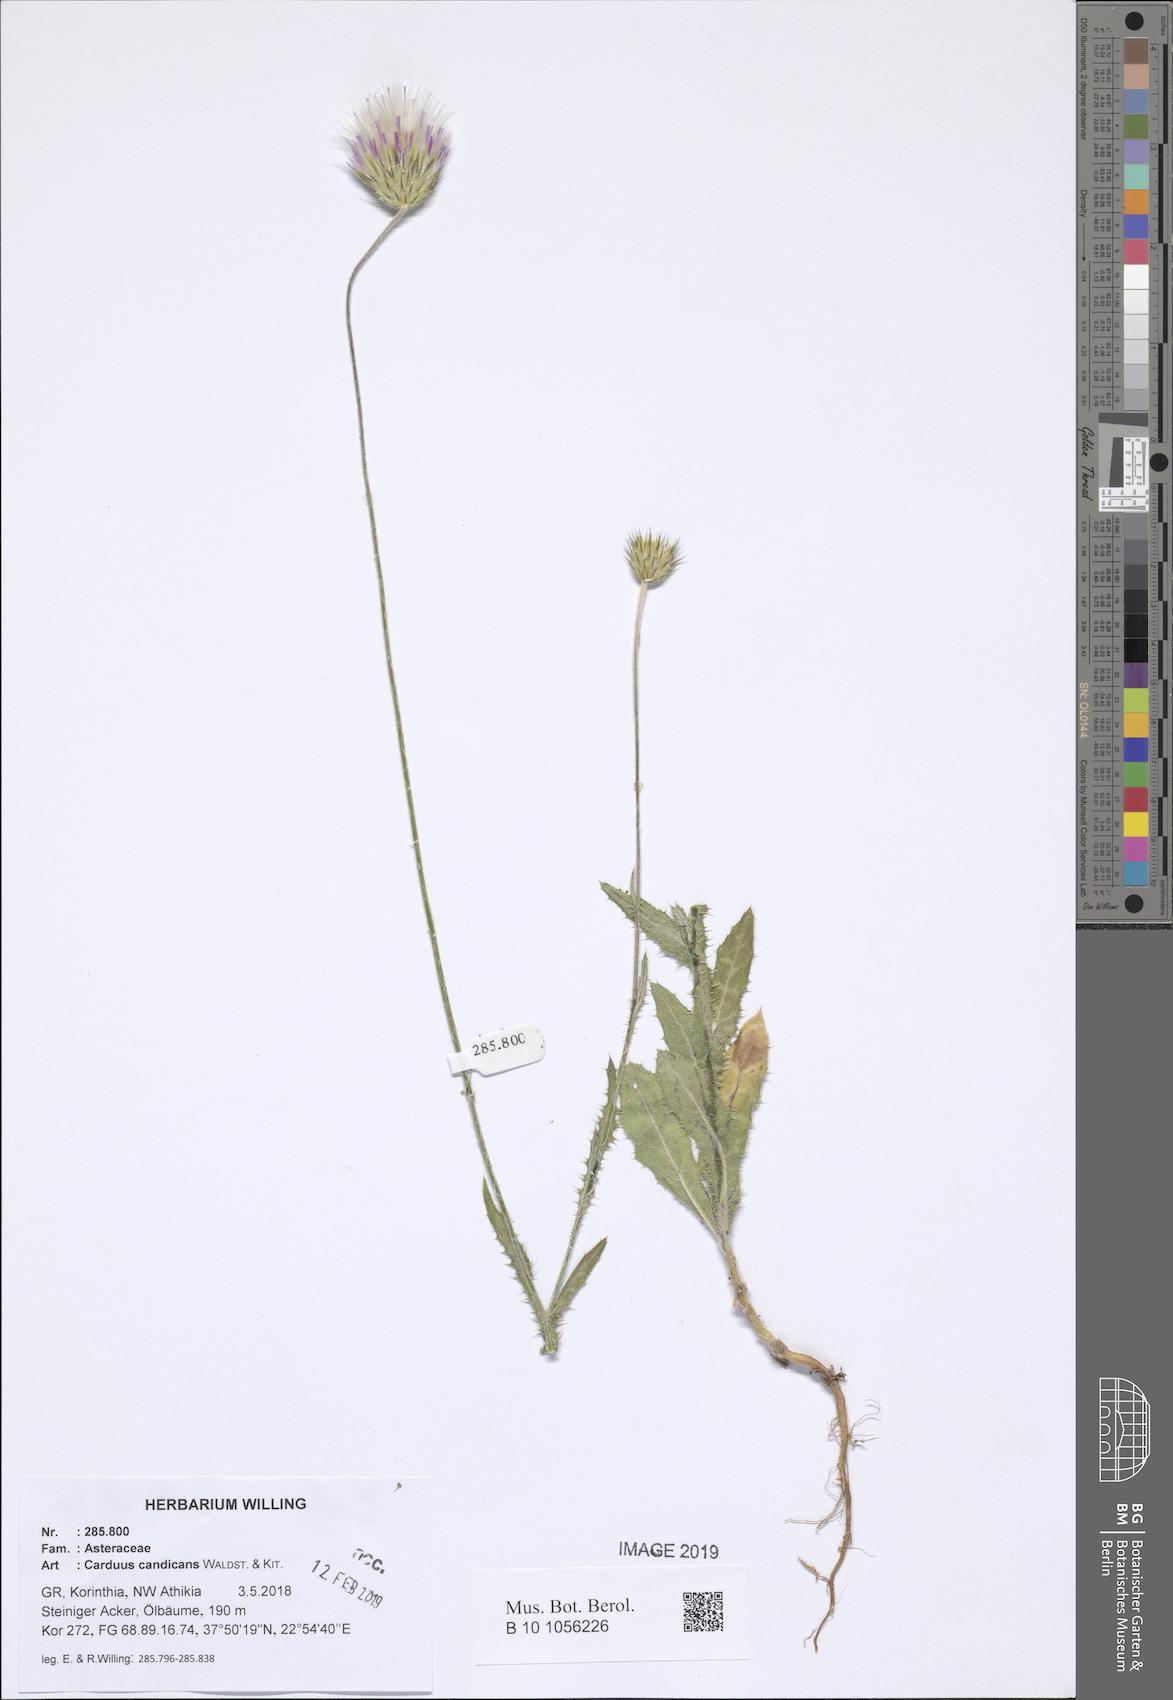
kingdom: Plantae
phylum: Tracheophyta
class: Magnoliopsida
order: Asterales
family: Asteraceae
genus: Carduus
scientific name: Carduus candicans
